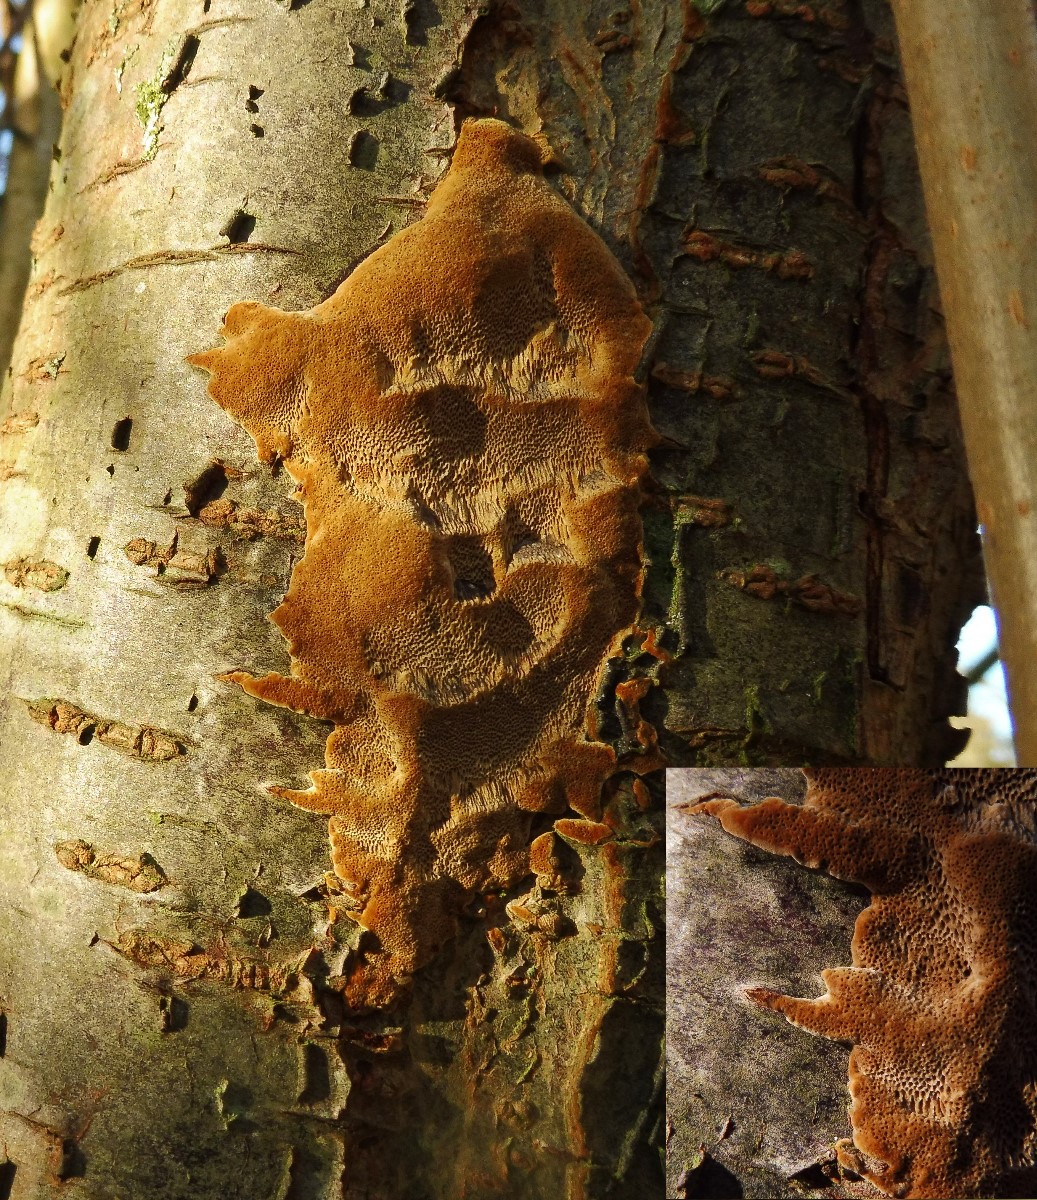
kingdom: Fungi
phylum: Basidiomycota
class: Agaricomycetes
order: Hymenochaetales
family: Hymenochaetaceae
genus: Fuscoporia
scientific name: Fuscoporia ferrea
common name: skorpe-ildporesvamp
